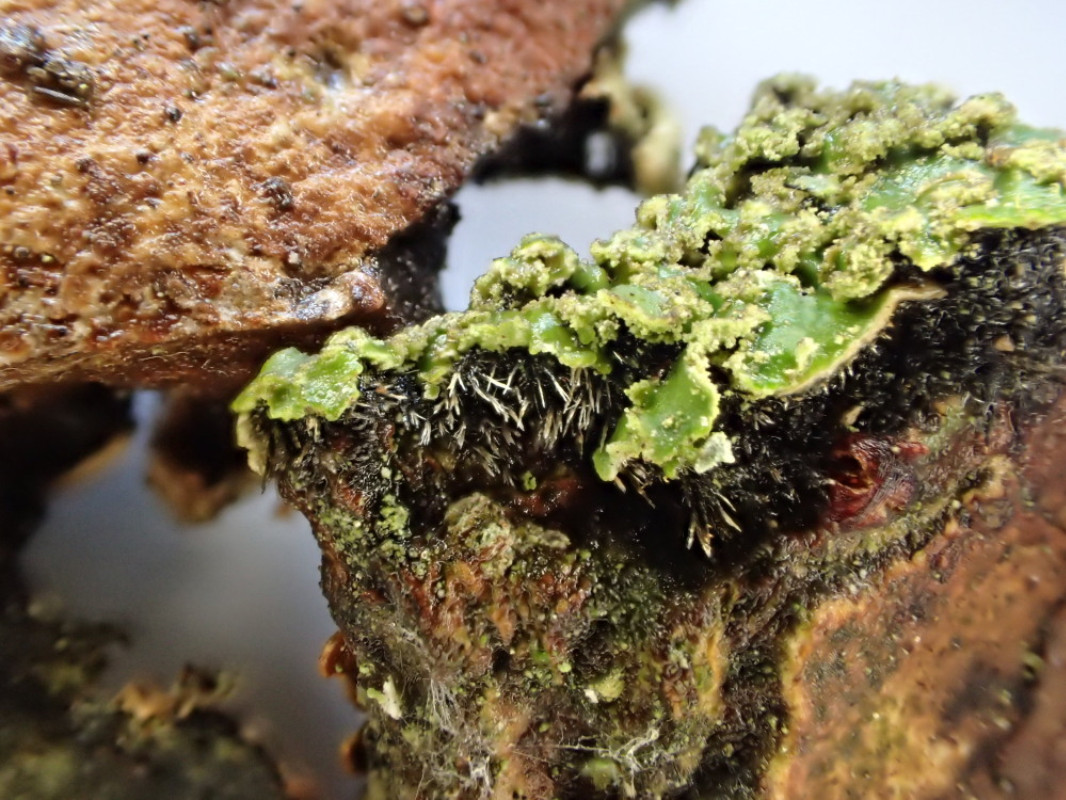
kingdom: Fungi
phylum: Ascomycota
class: Lecanoromycetes
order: Caliciales
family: Physciaceae
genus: Physconia
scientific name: Physconia perisidiosa
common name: liden dugrosetlav
